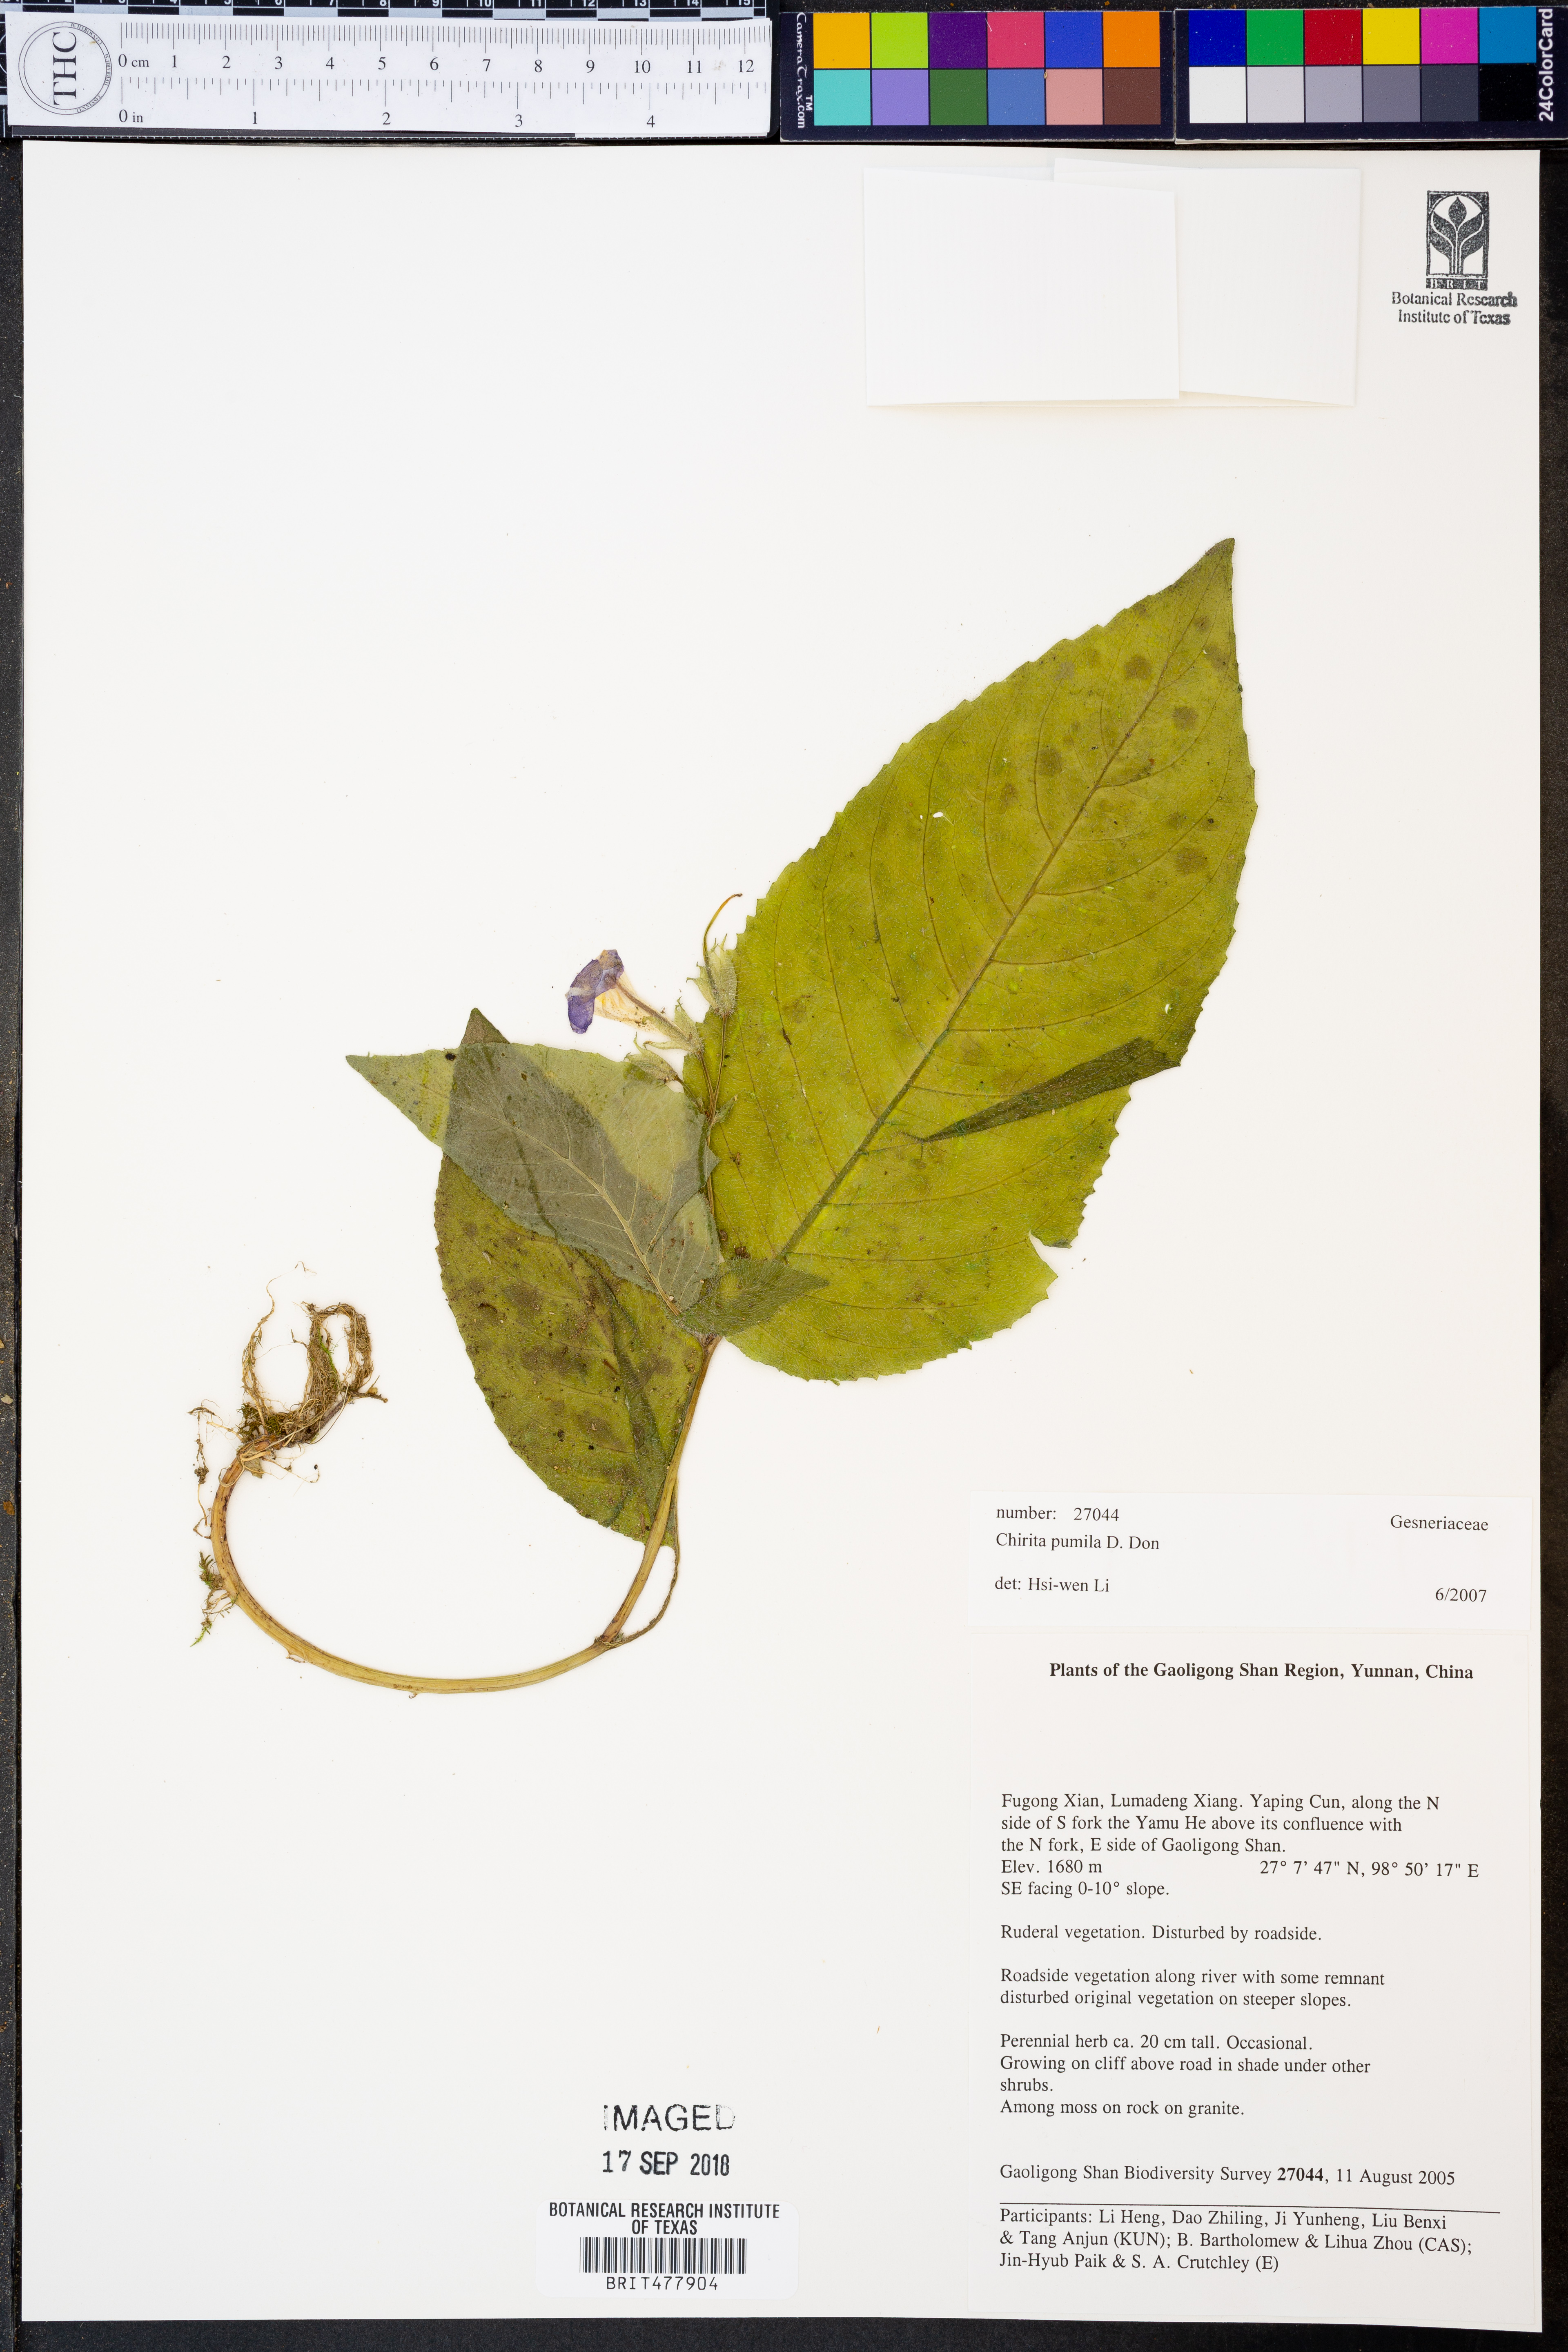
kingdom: Plantae
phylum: Tracheophyta
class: Magnoliopsida
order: Lamiales
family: Gesneriaceae
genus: Henckelia
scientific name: Henckelia pumila
